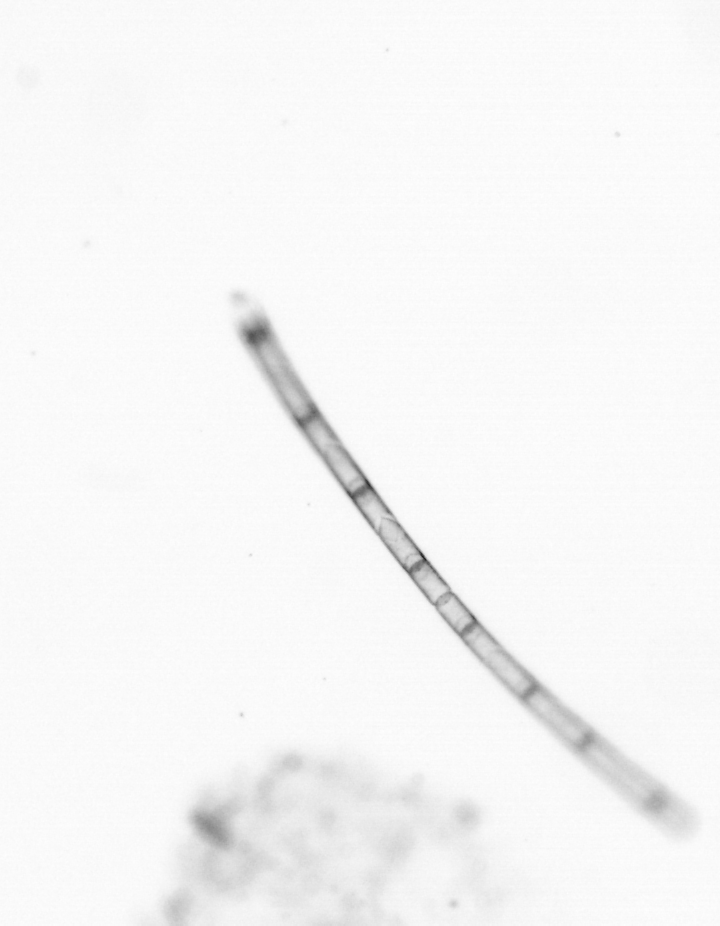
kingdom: Chromista
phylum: Ochrophyta
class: Bacillariophyceae
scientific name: Bacillariophyceae
